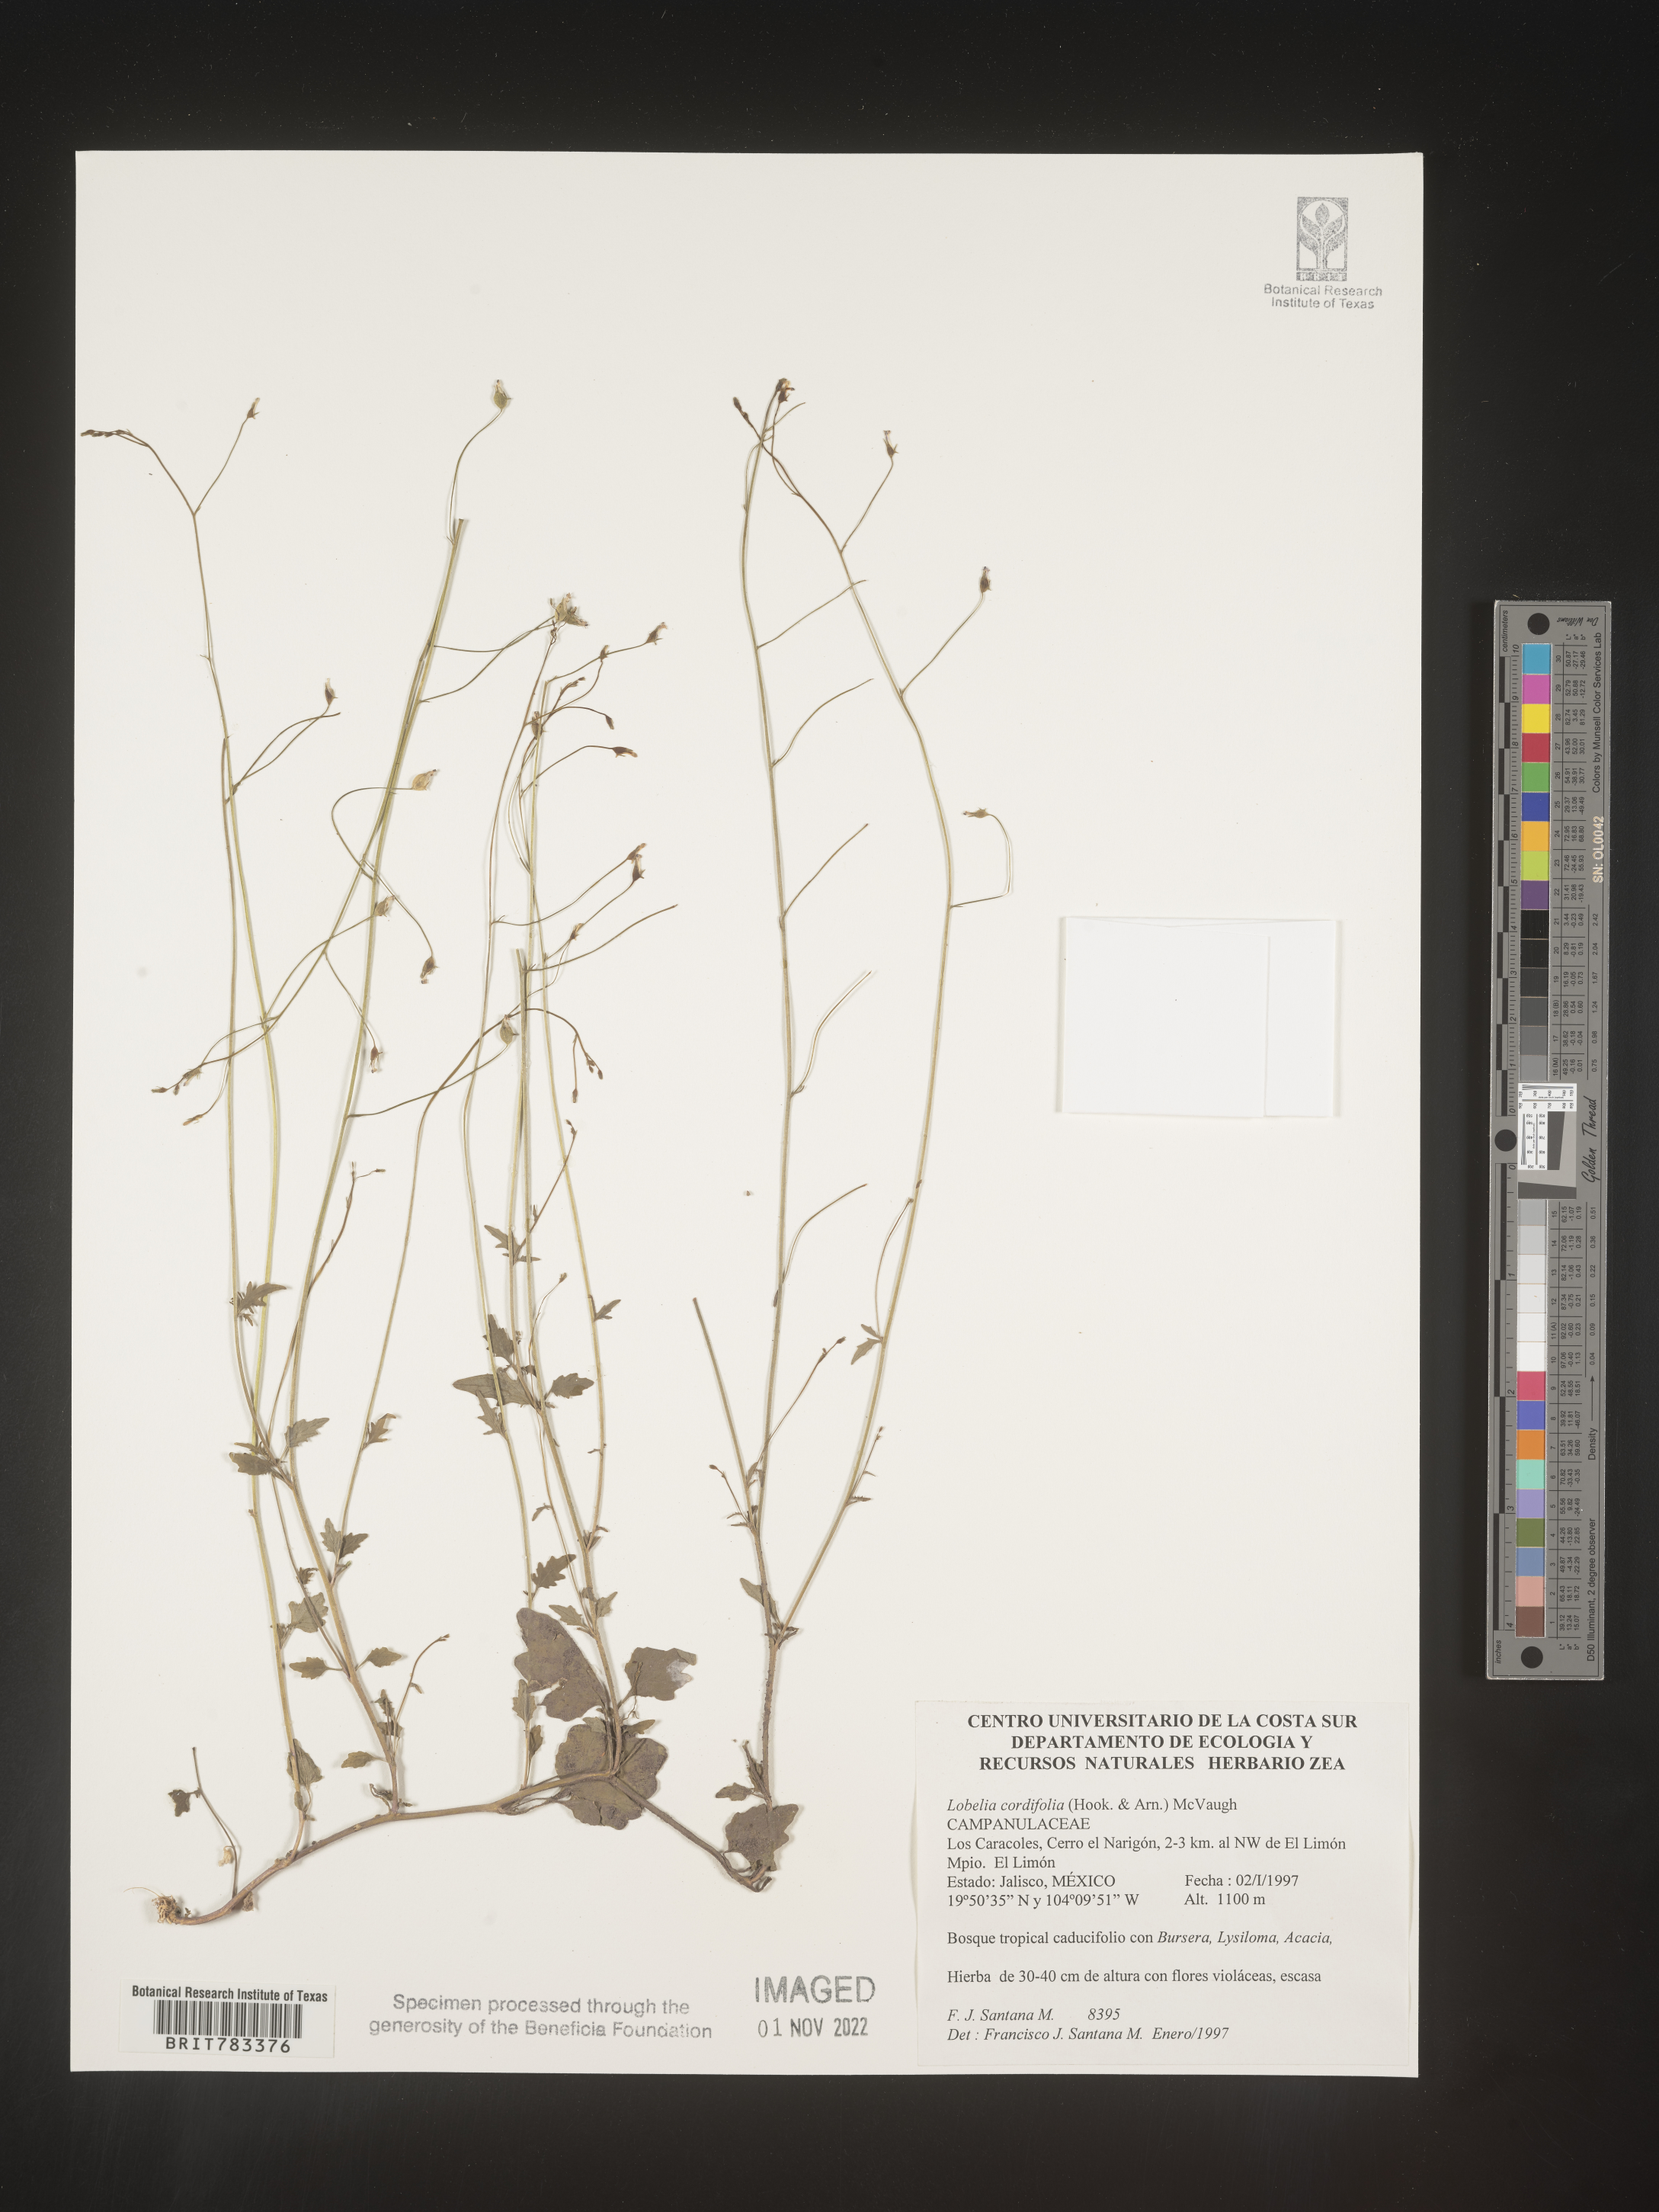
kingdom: Plantae
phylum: Tracheophyta
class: Magnoliopsida
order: Asterales
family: Campanulaceae
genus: Lobelia
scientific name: Lobelia
